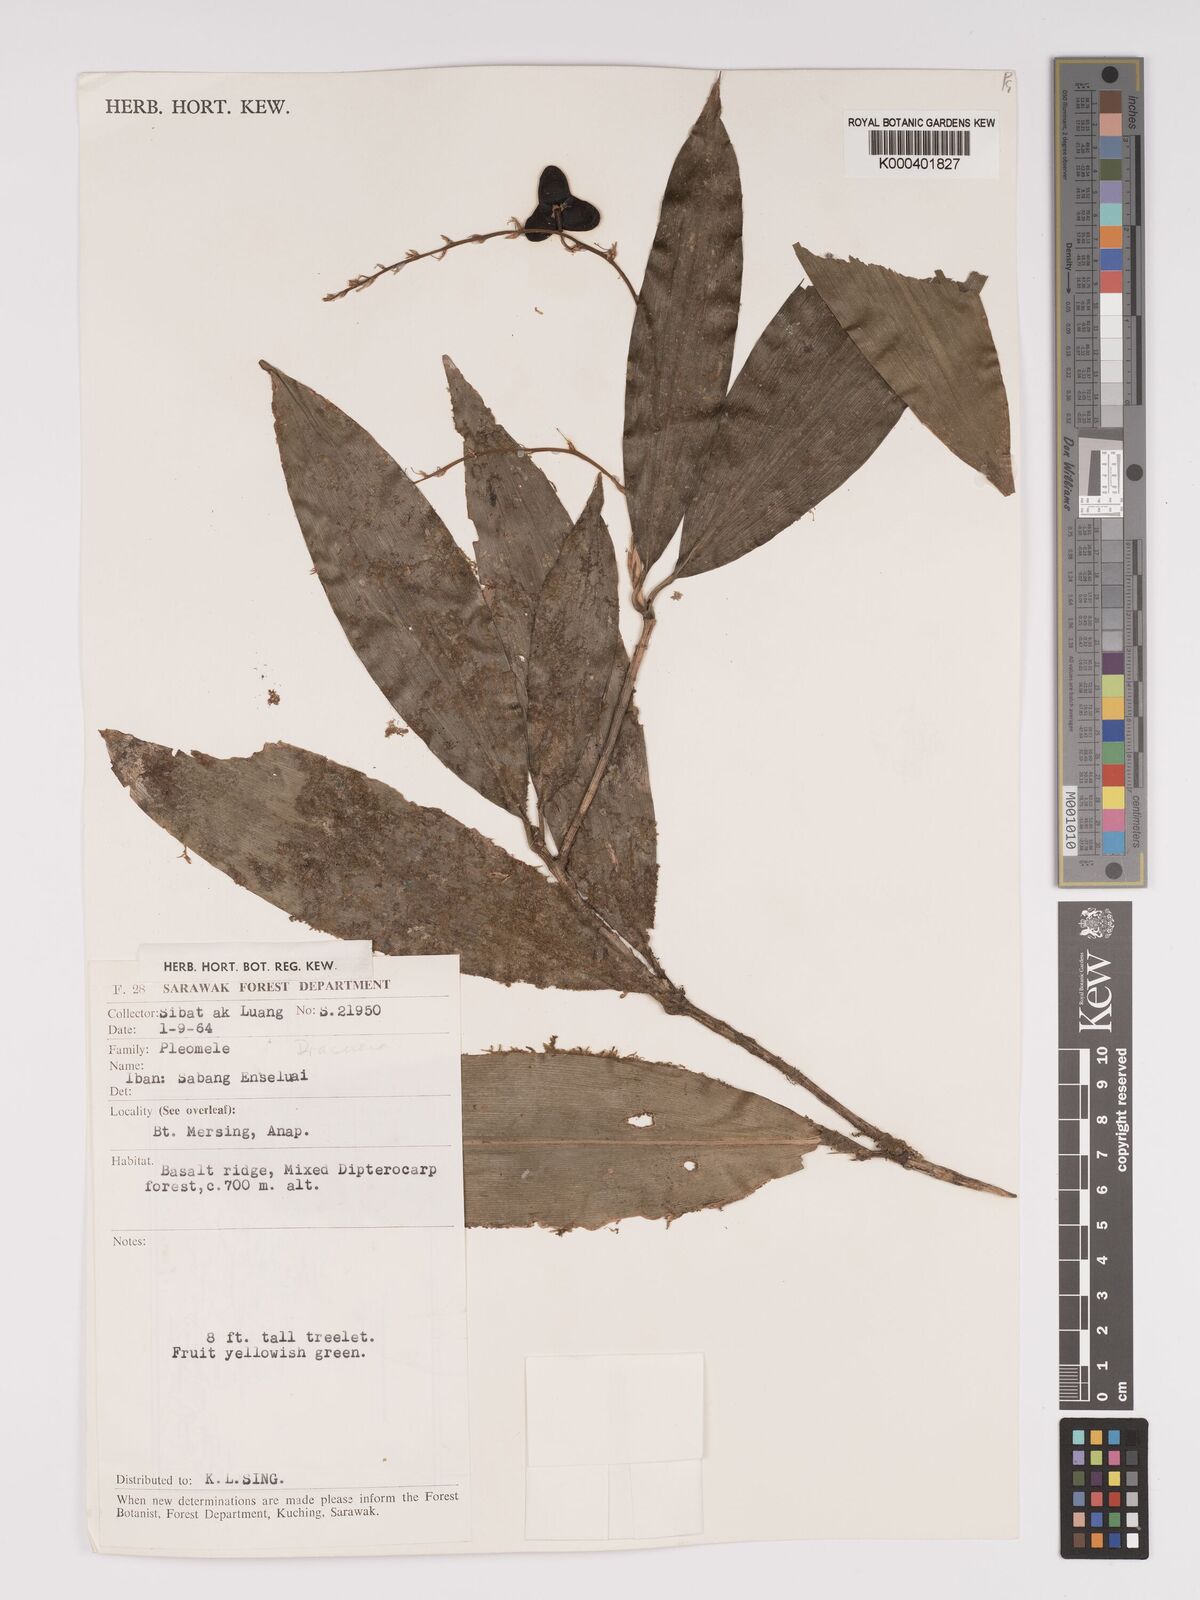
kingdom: Plantae
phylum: Tracheophyta
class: Liliopsida
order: Asparagales
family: Asparagaceae
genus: Dracaena
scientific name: Dracaena
